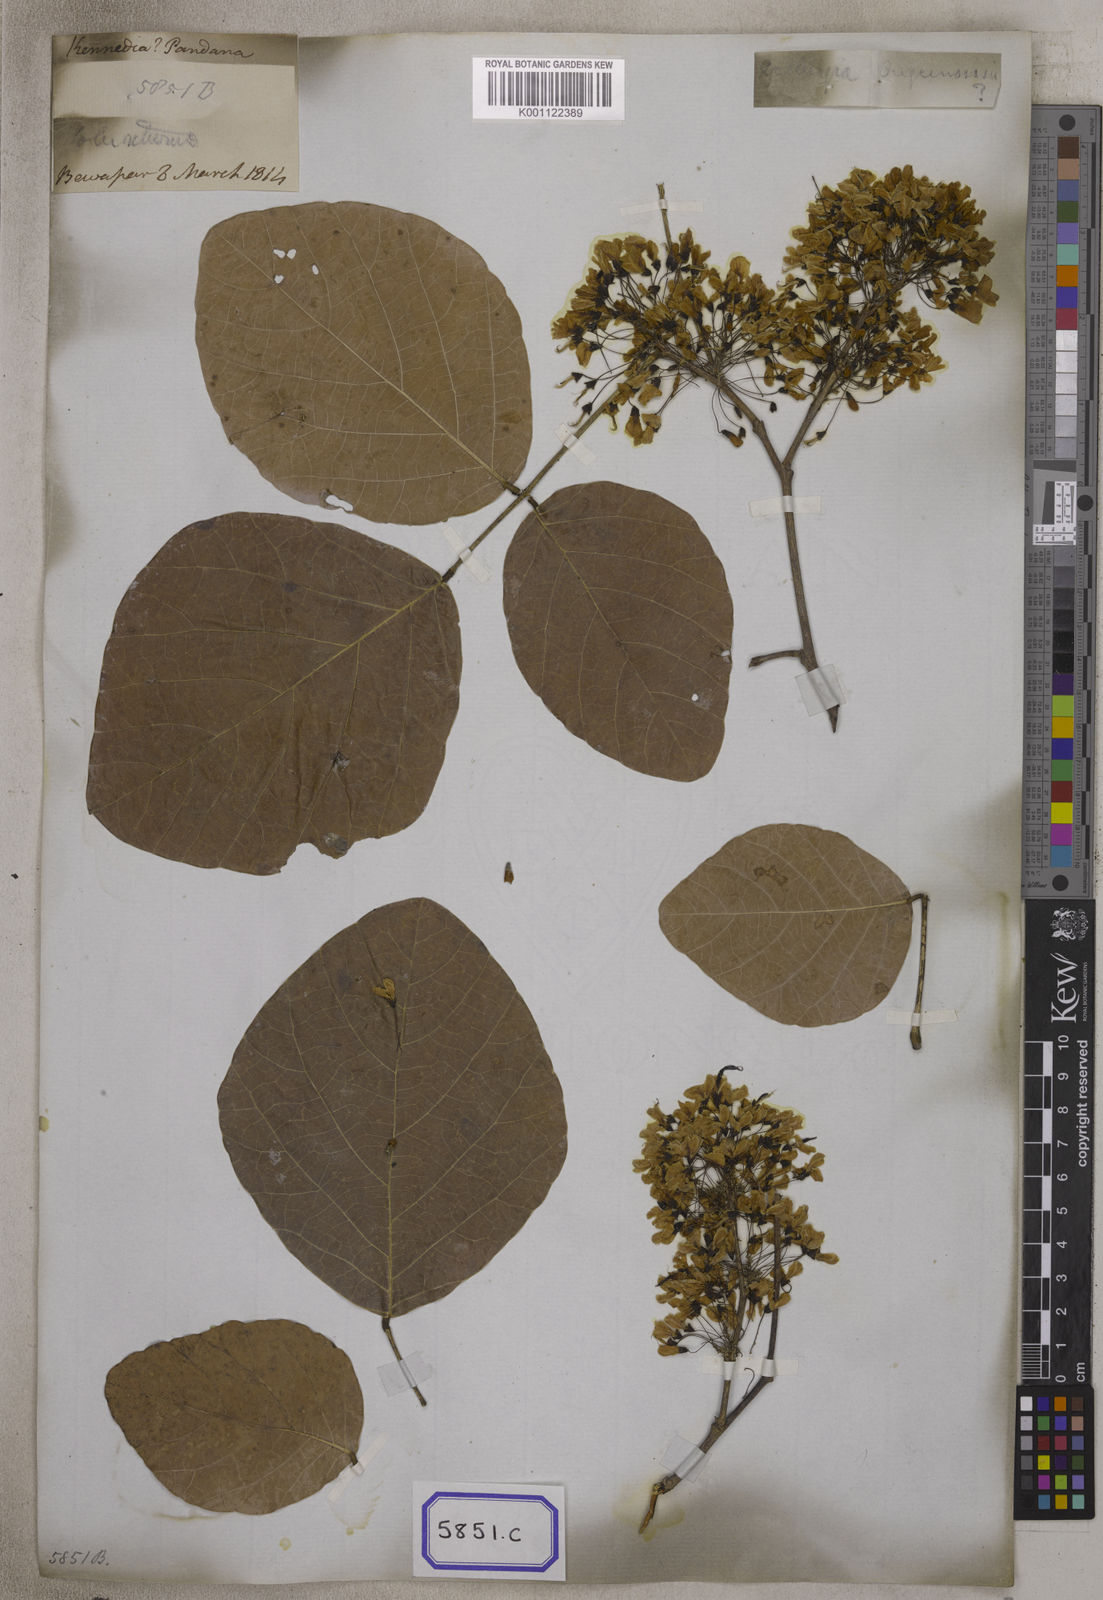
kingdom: Plantae
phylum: Tracheophyta
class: Magnoliopsida
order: Fabales
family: Fabaceae
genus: Ougeinia
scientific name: Ougeinia oojeinensis
